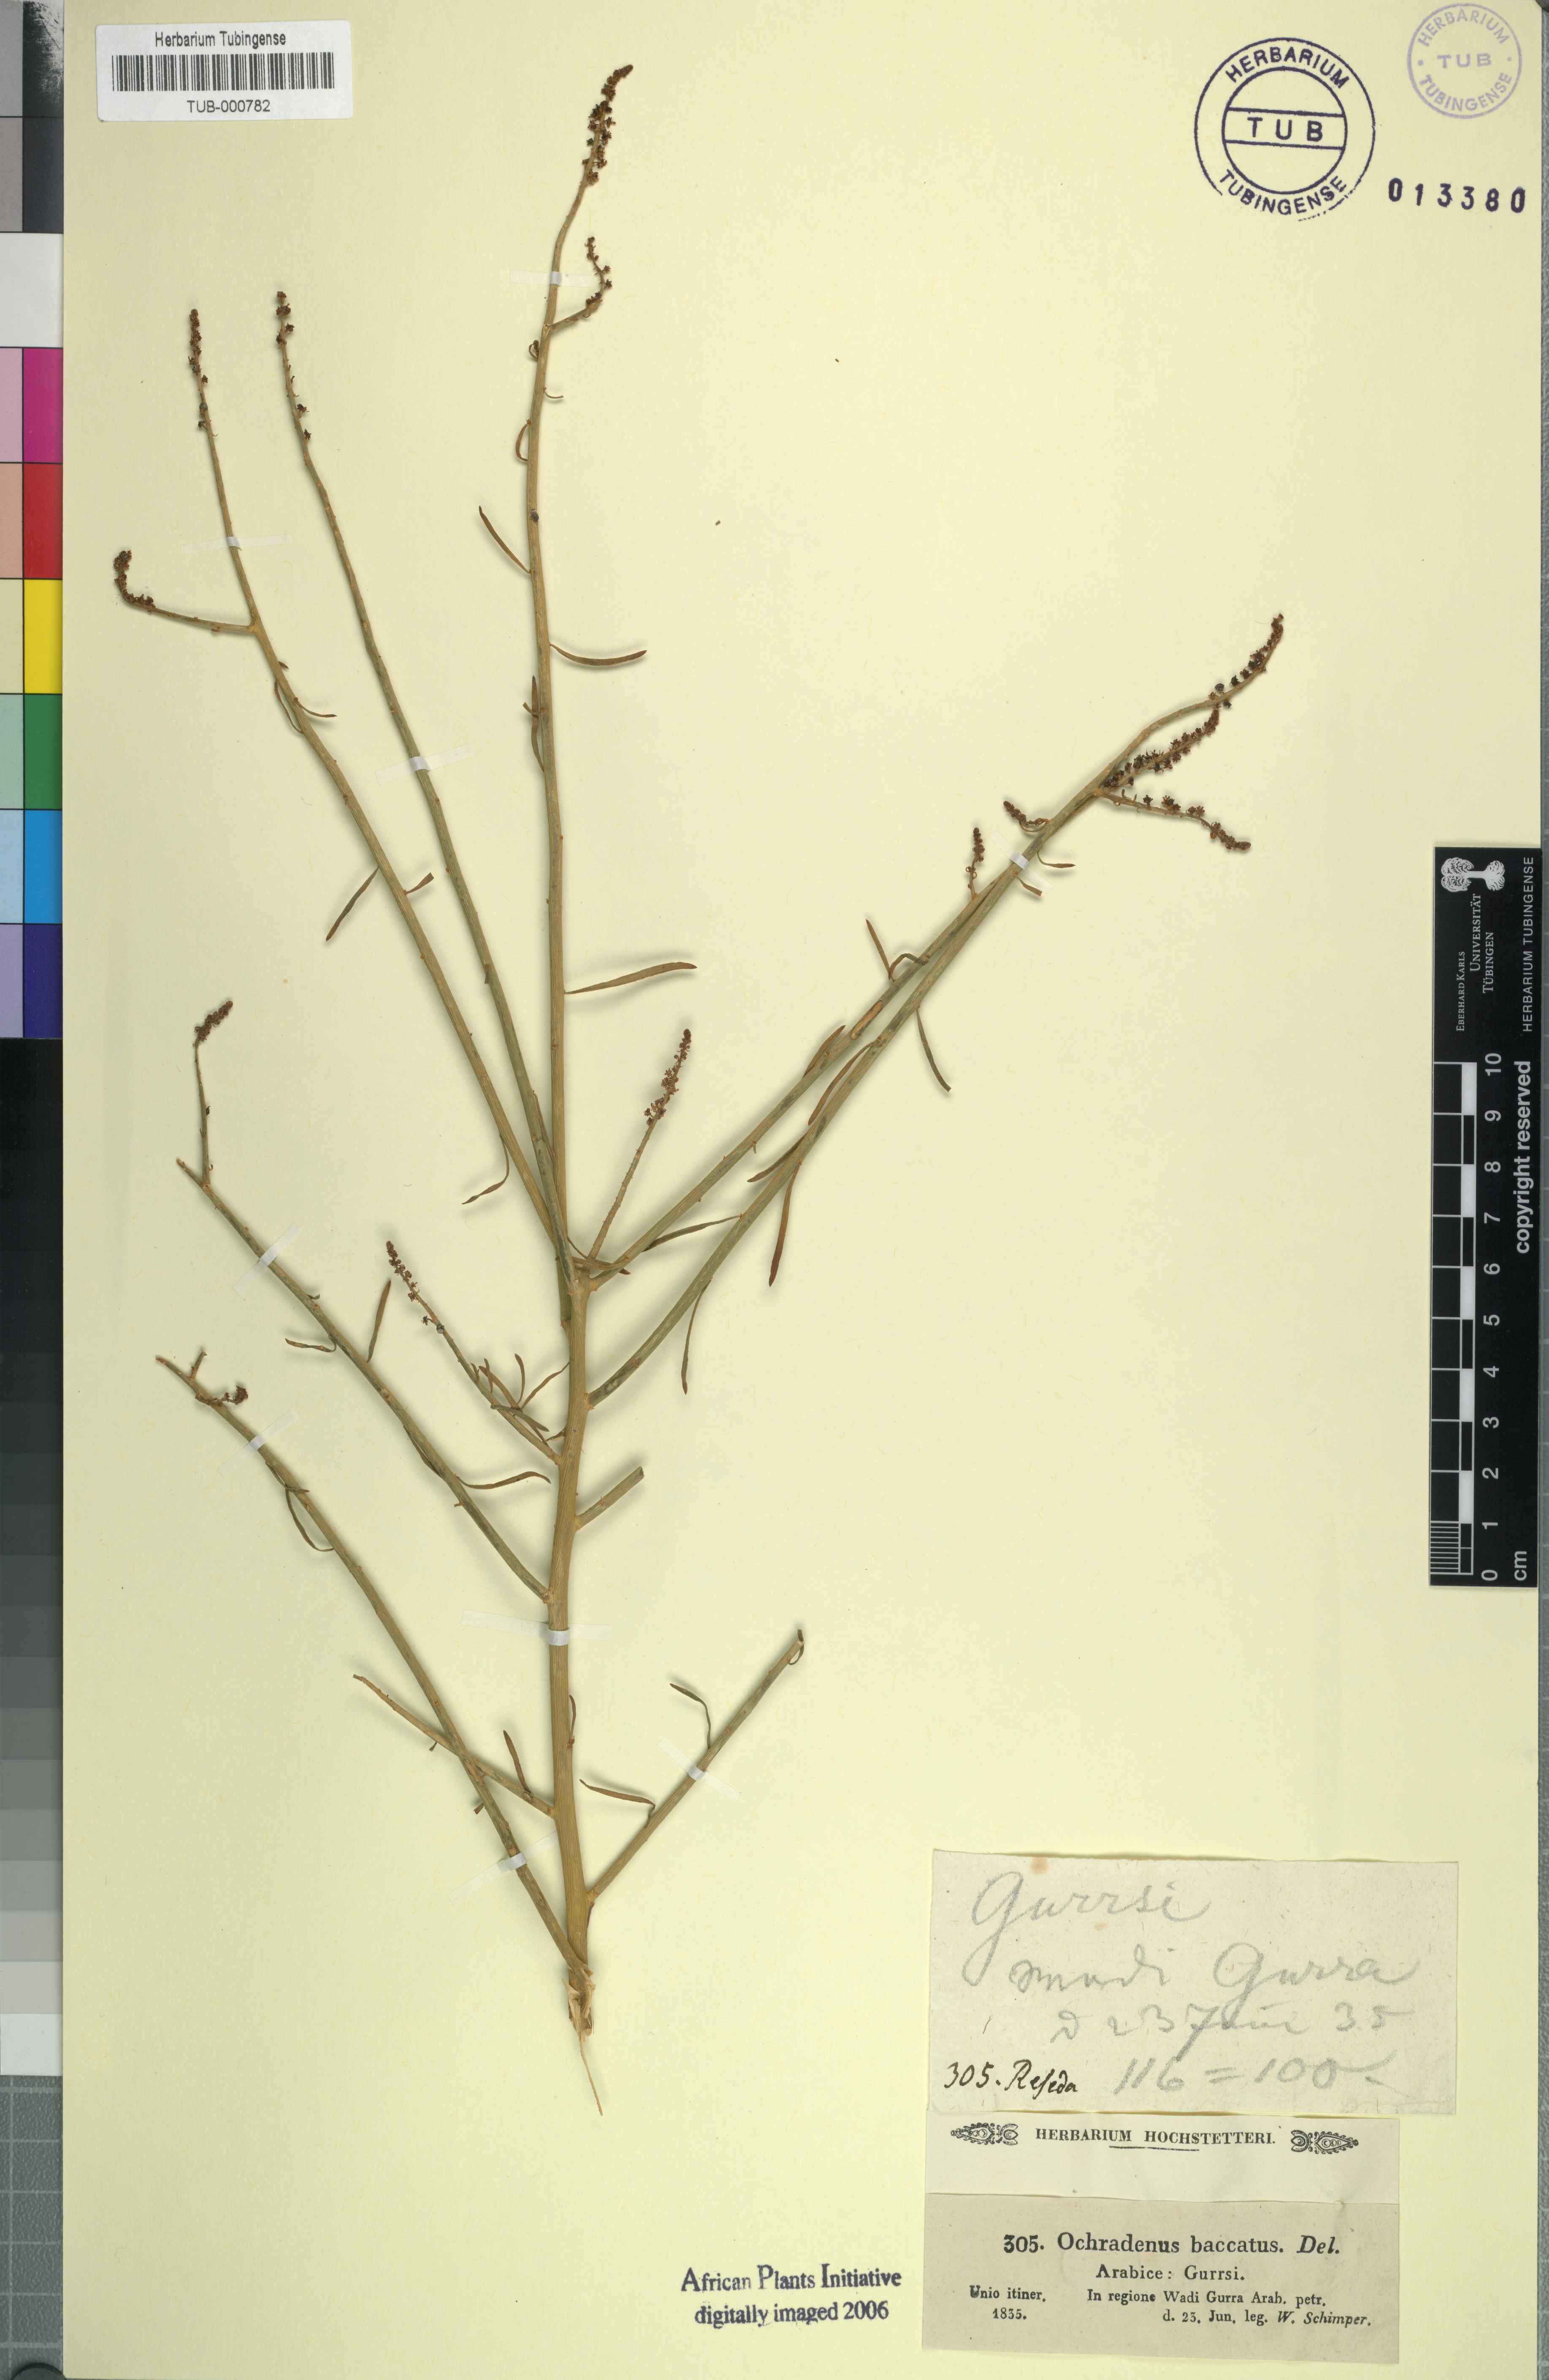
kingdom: Plantae
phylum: Tracheophyta
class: Magnoliopsida
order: Brassicales
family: Resedaceae
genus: Ochradenus
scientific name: Ochradenus baccatus
